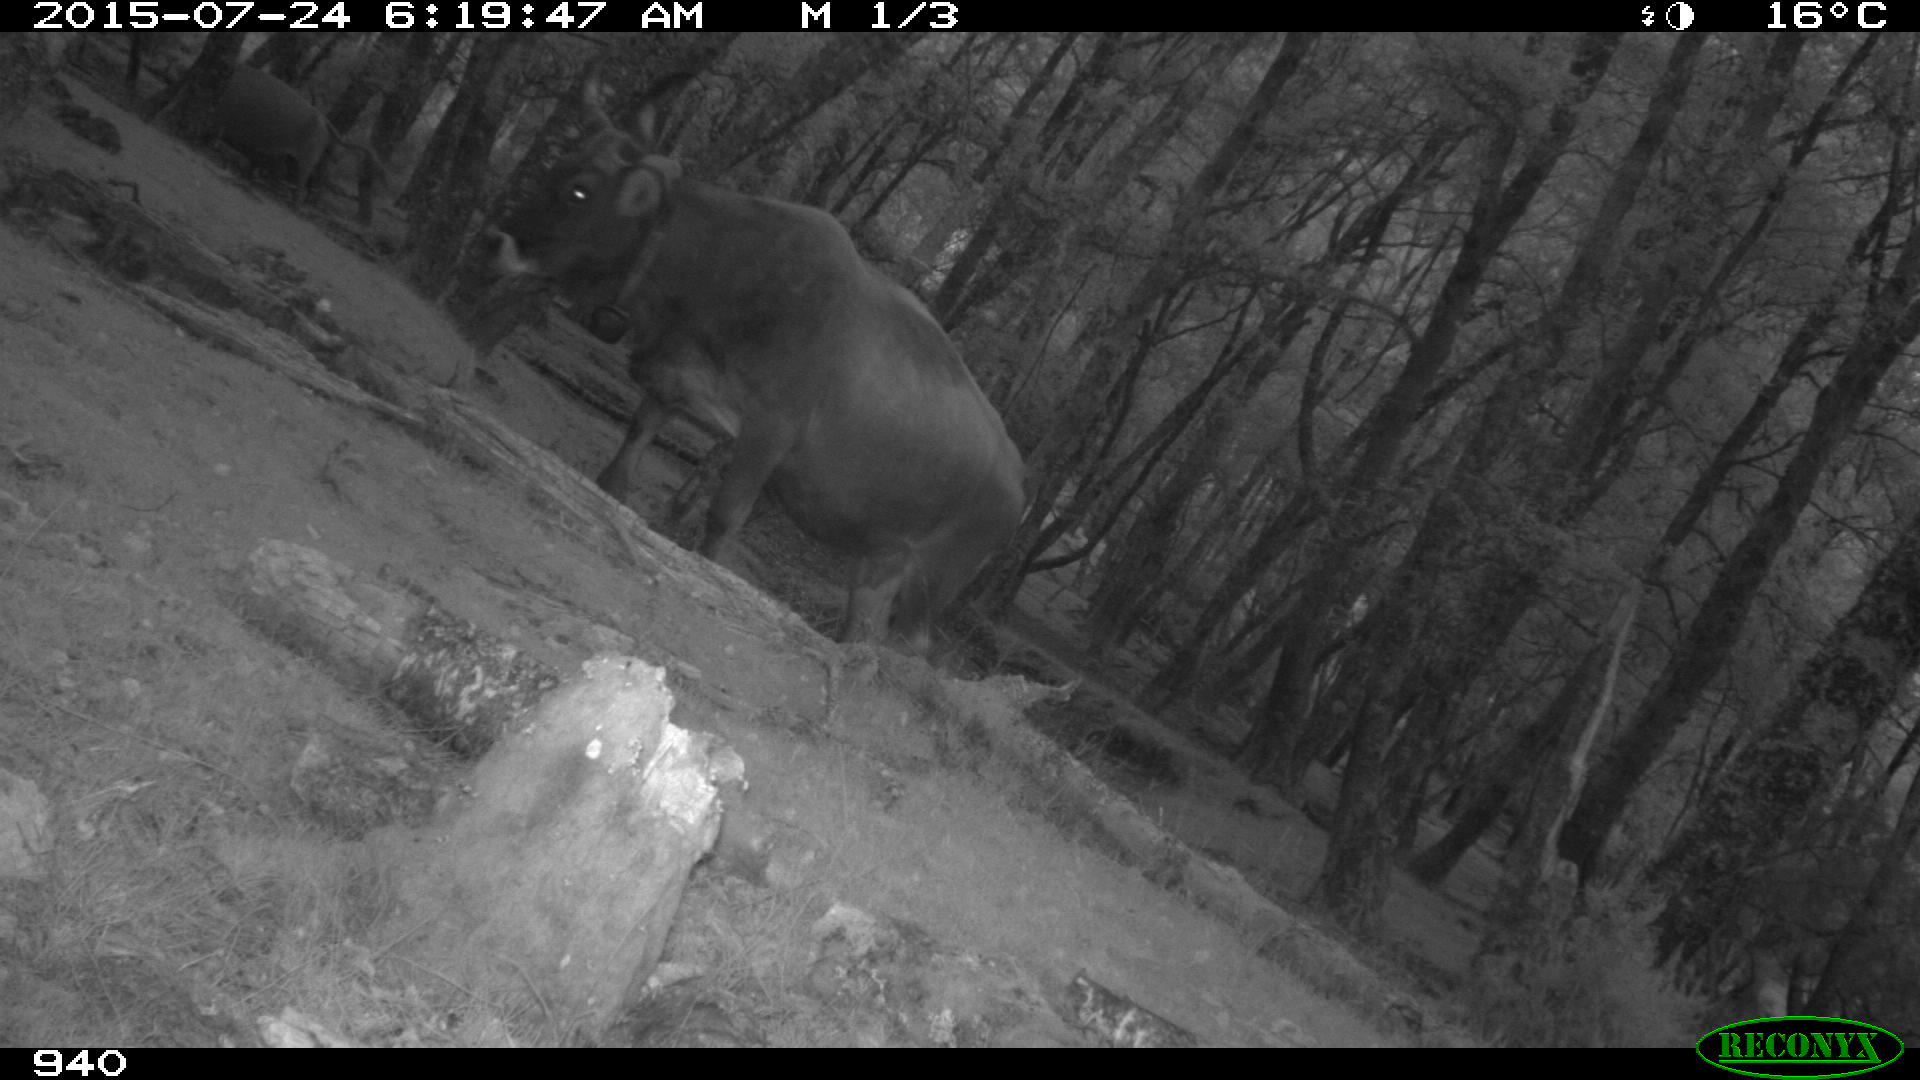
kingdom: Animalia
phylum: Chordata
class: Mammalia
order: Artiodactyla
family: Bovidae
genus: Bos
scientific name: Bos taurus
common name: Domesticated cattle
